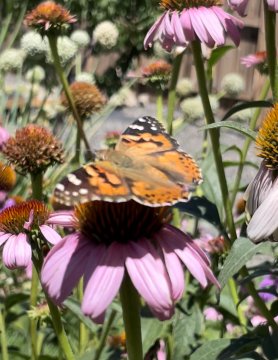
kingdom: Animalia
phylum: Arthropoda
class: Insecta
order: Lepidoptera
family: Nymphalidae
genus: Vanessa
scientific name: Vanessa cardui
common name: Painted Lady
